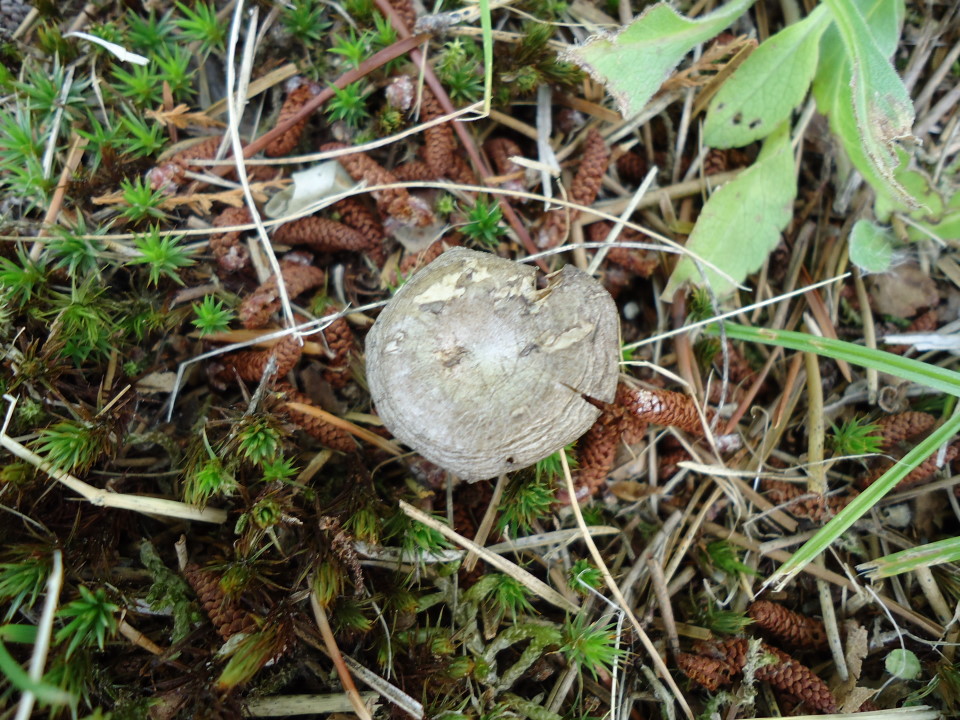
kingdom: Fungi
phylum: Basidiomycota
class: Agaricomycetes
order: Agaricales
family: Entolomataceae
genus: Clitopilus
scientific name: Clitopilus caelatus
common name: gråbrun troldhat
